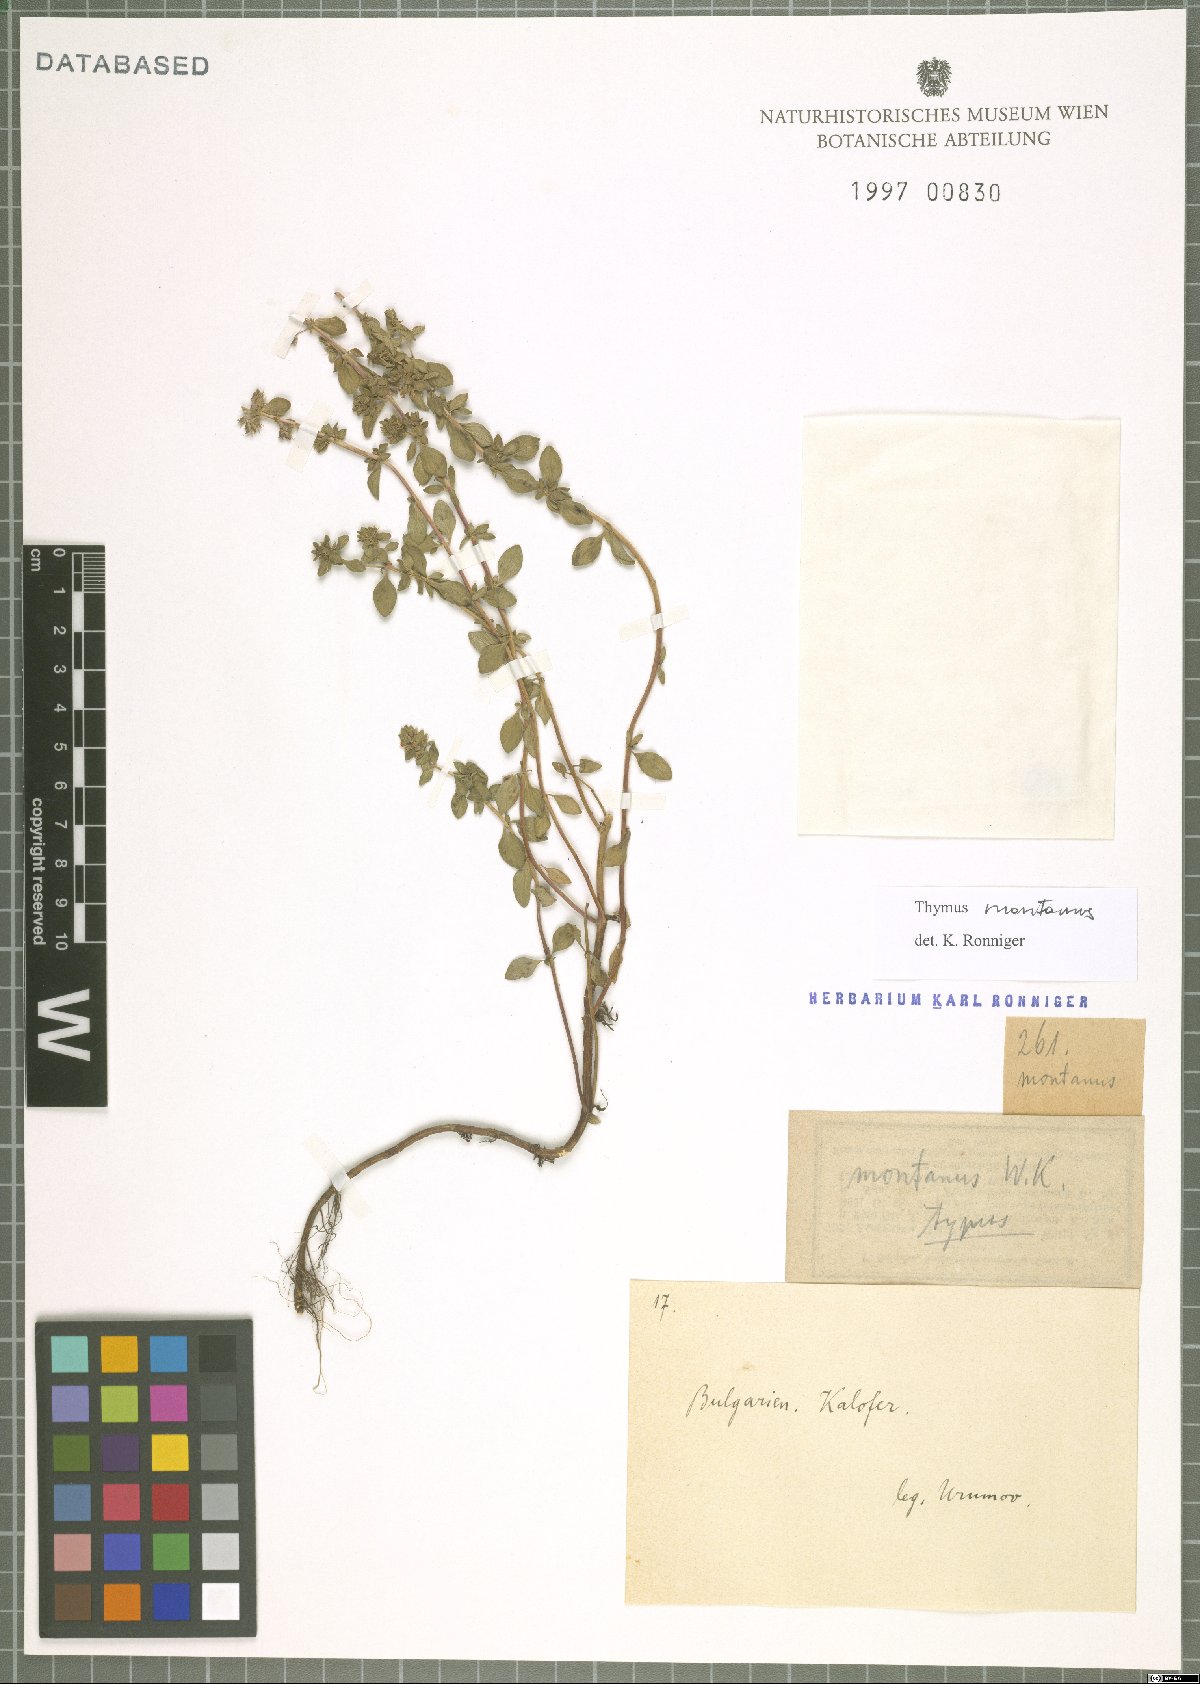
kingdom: Plantae
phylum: Tracheophyta
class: Magnoliopsida
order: Lamiales
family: Lamiaceae
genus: Thymus
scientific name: Thymus pulegioides
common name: Large thyme
